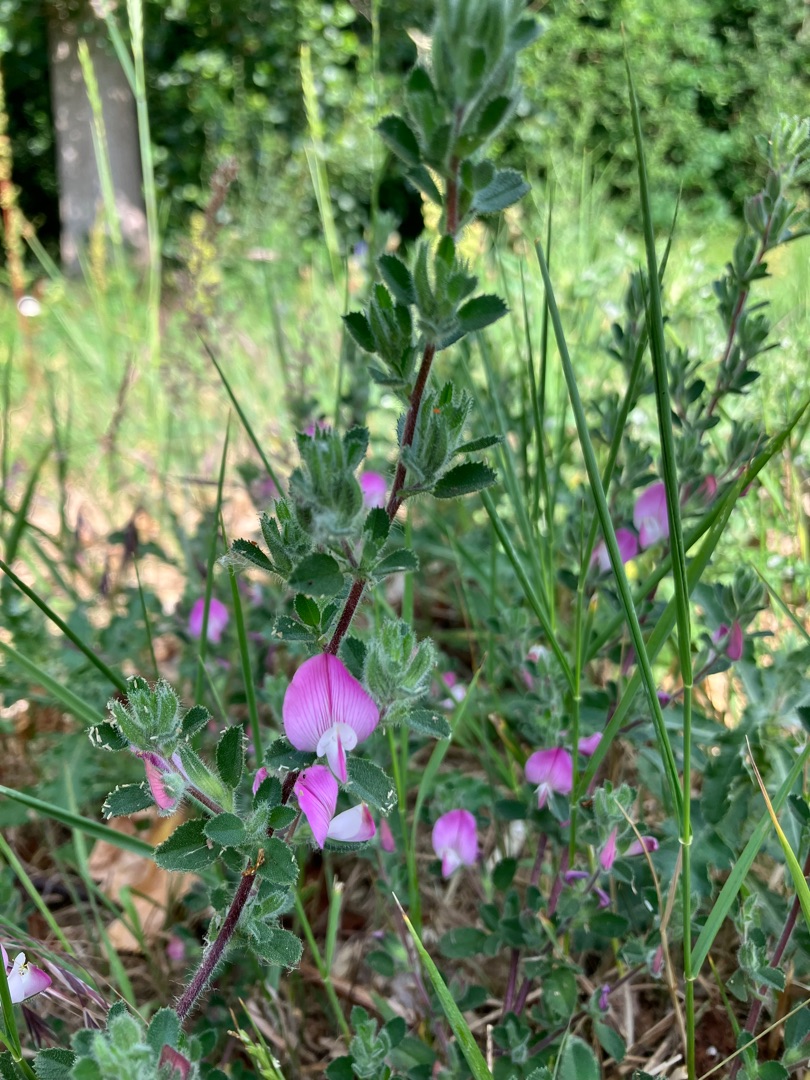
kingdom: Plantae
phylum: Tracheophyta
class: Magnoliopsida
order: Fabales
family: Fabaceae
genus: Ononis
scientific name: Ononis spinosa
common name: Mark-krageklo
